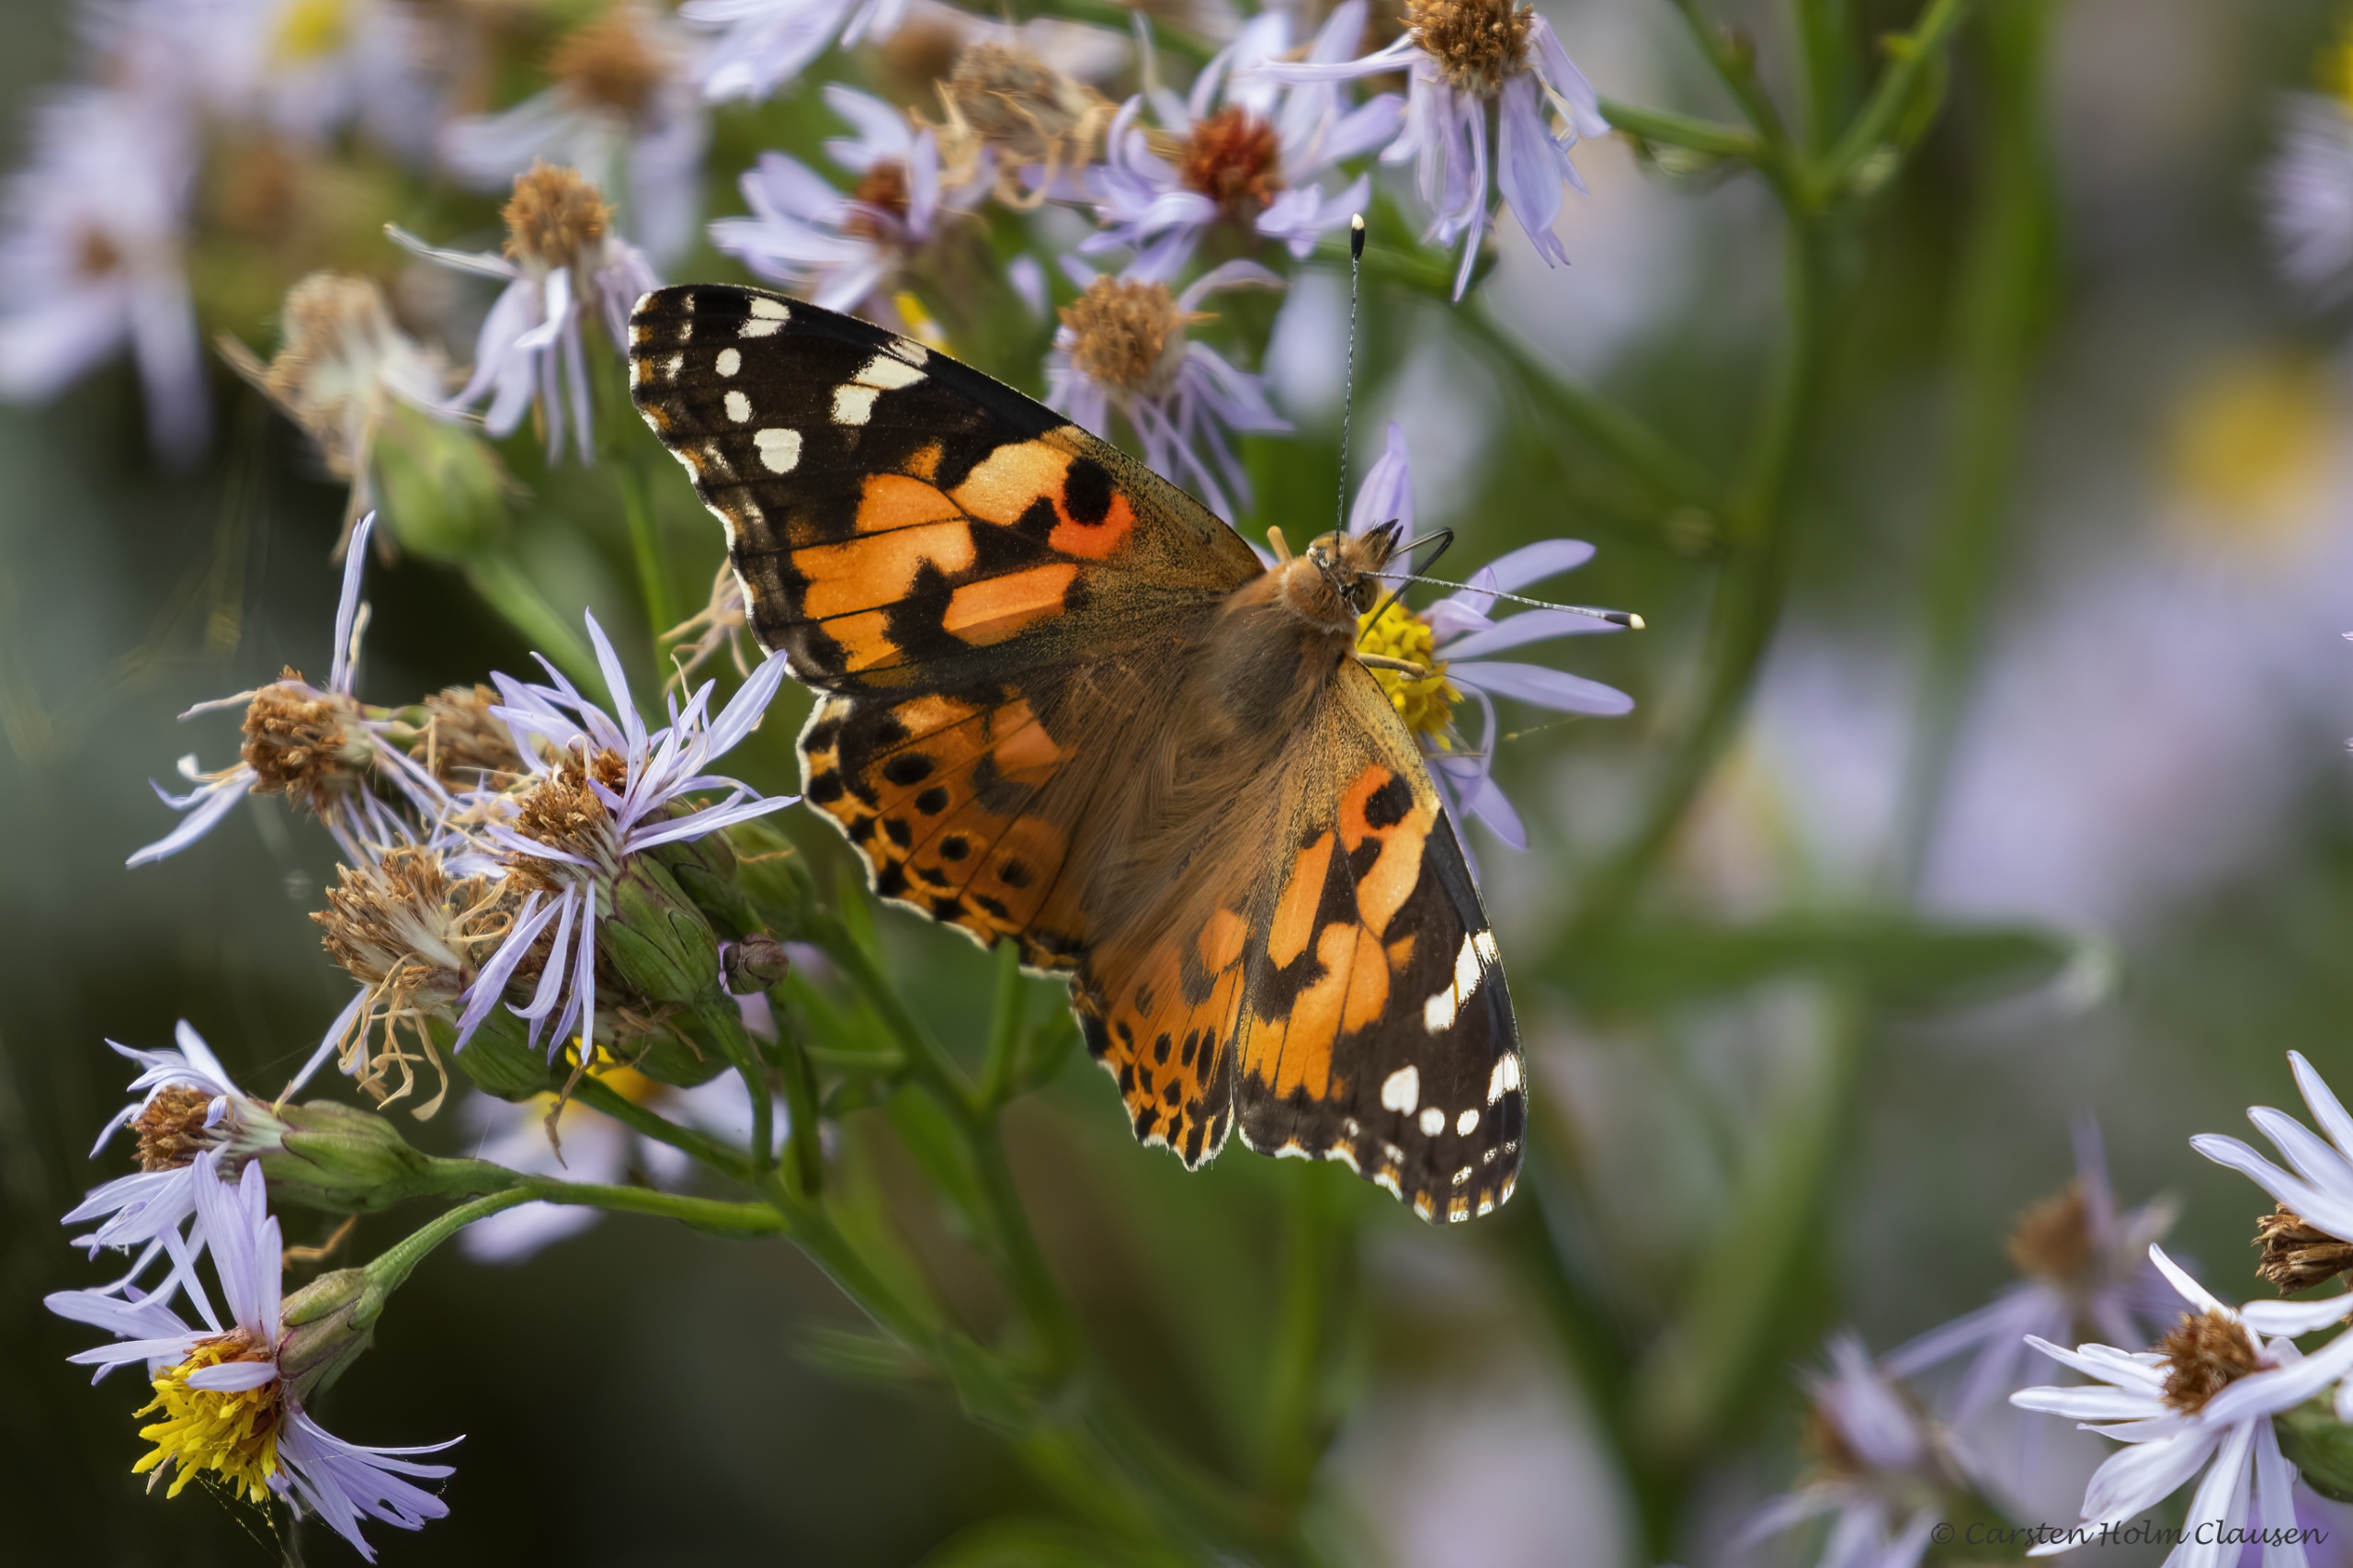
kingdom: Animalia
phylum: Arthropoda
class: Insecta
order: Lepidoptera
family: Nymphalidae
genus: Vanessa
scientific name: Vanessa cardui
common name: Tidselsommerfugl
